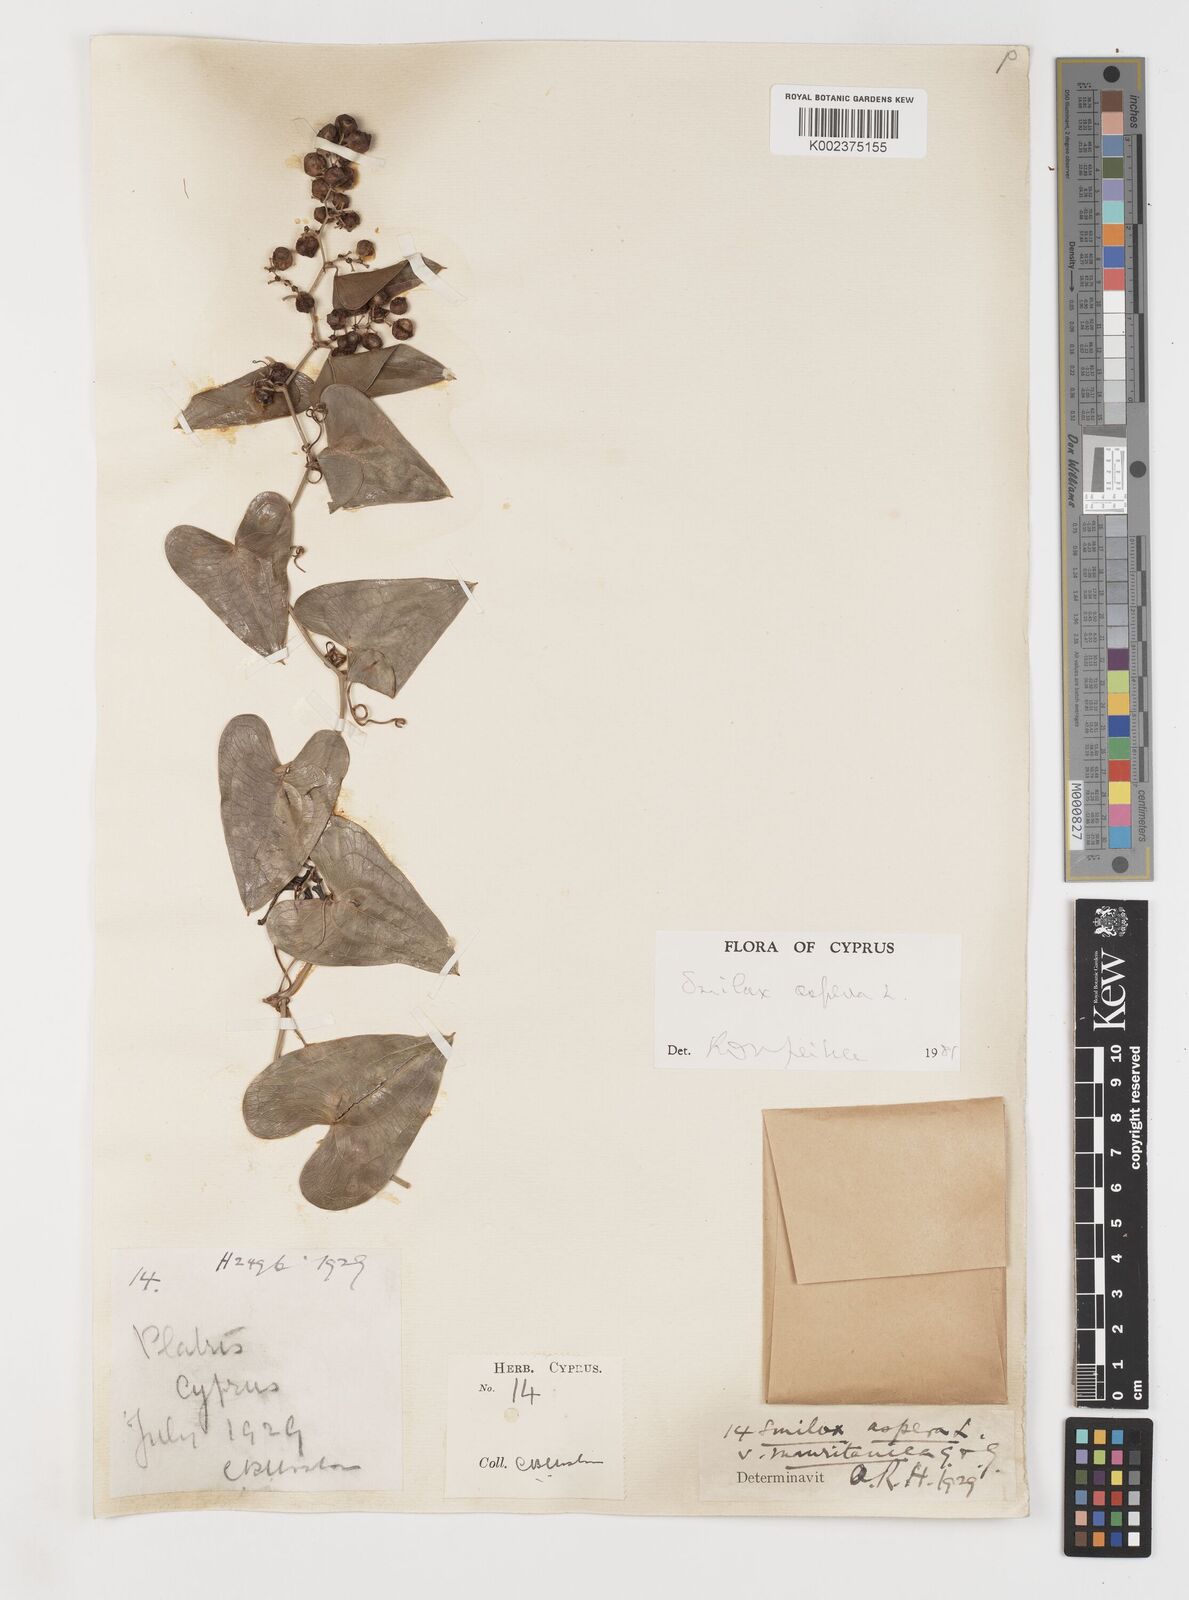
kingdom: Plantae
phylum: Tracheophyta
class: Liliopsida
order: Liliales
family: Smilacaceae
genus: Smilax
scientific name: Smilax aspera
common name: Common smilax
